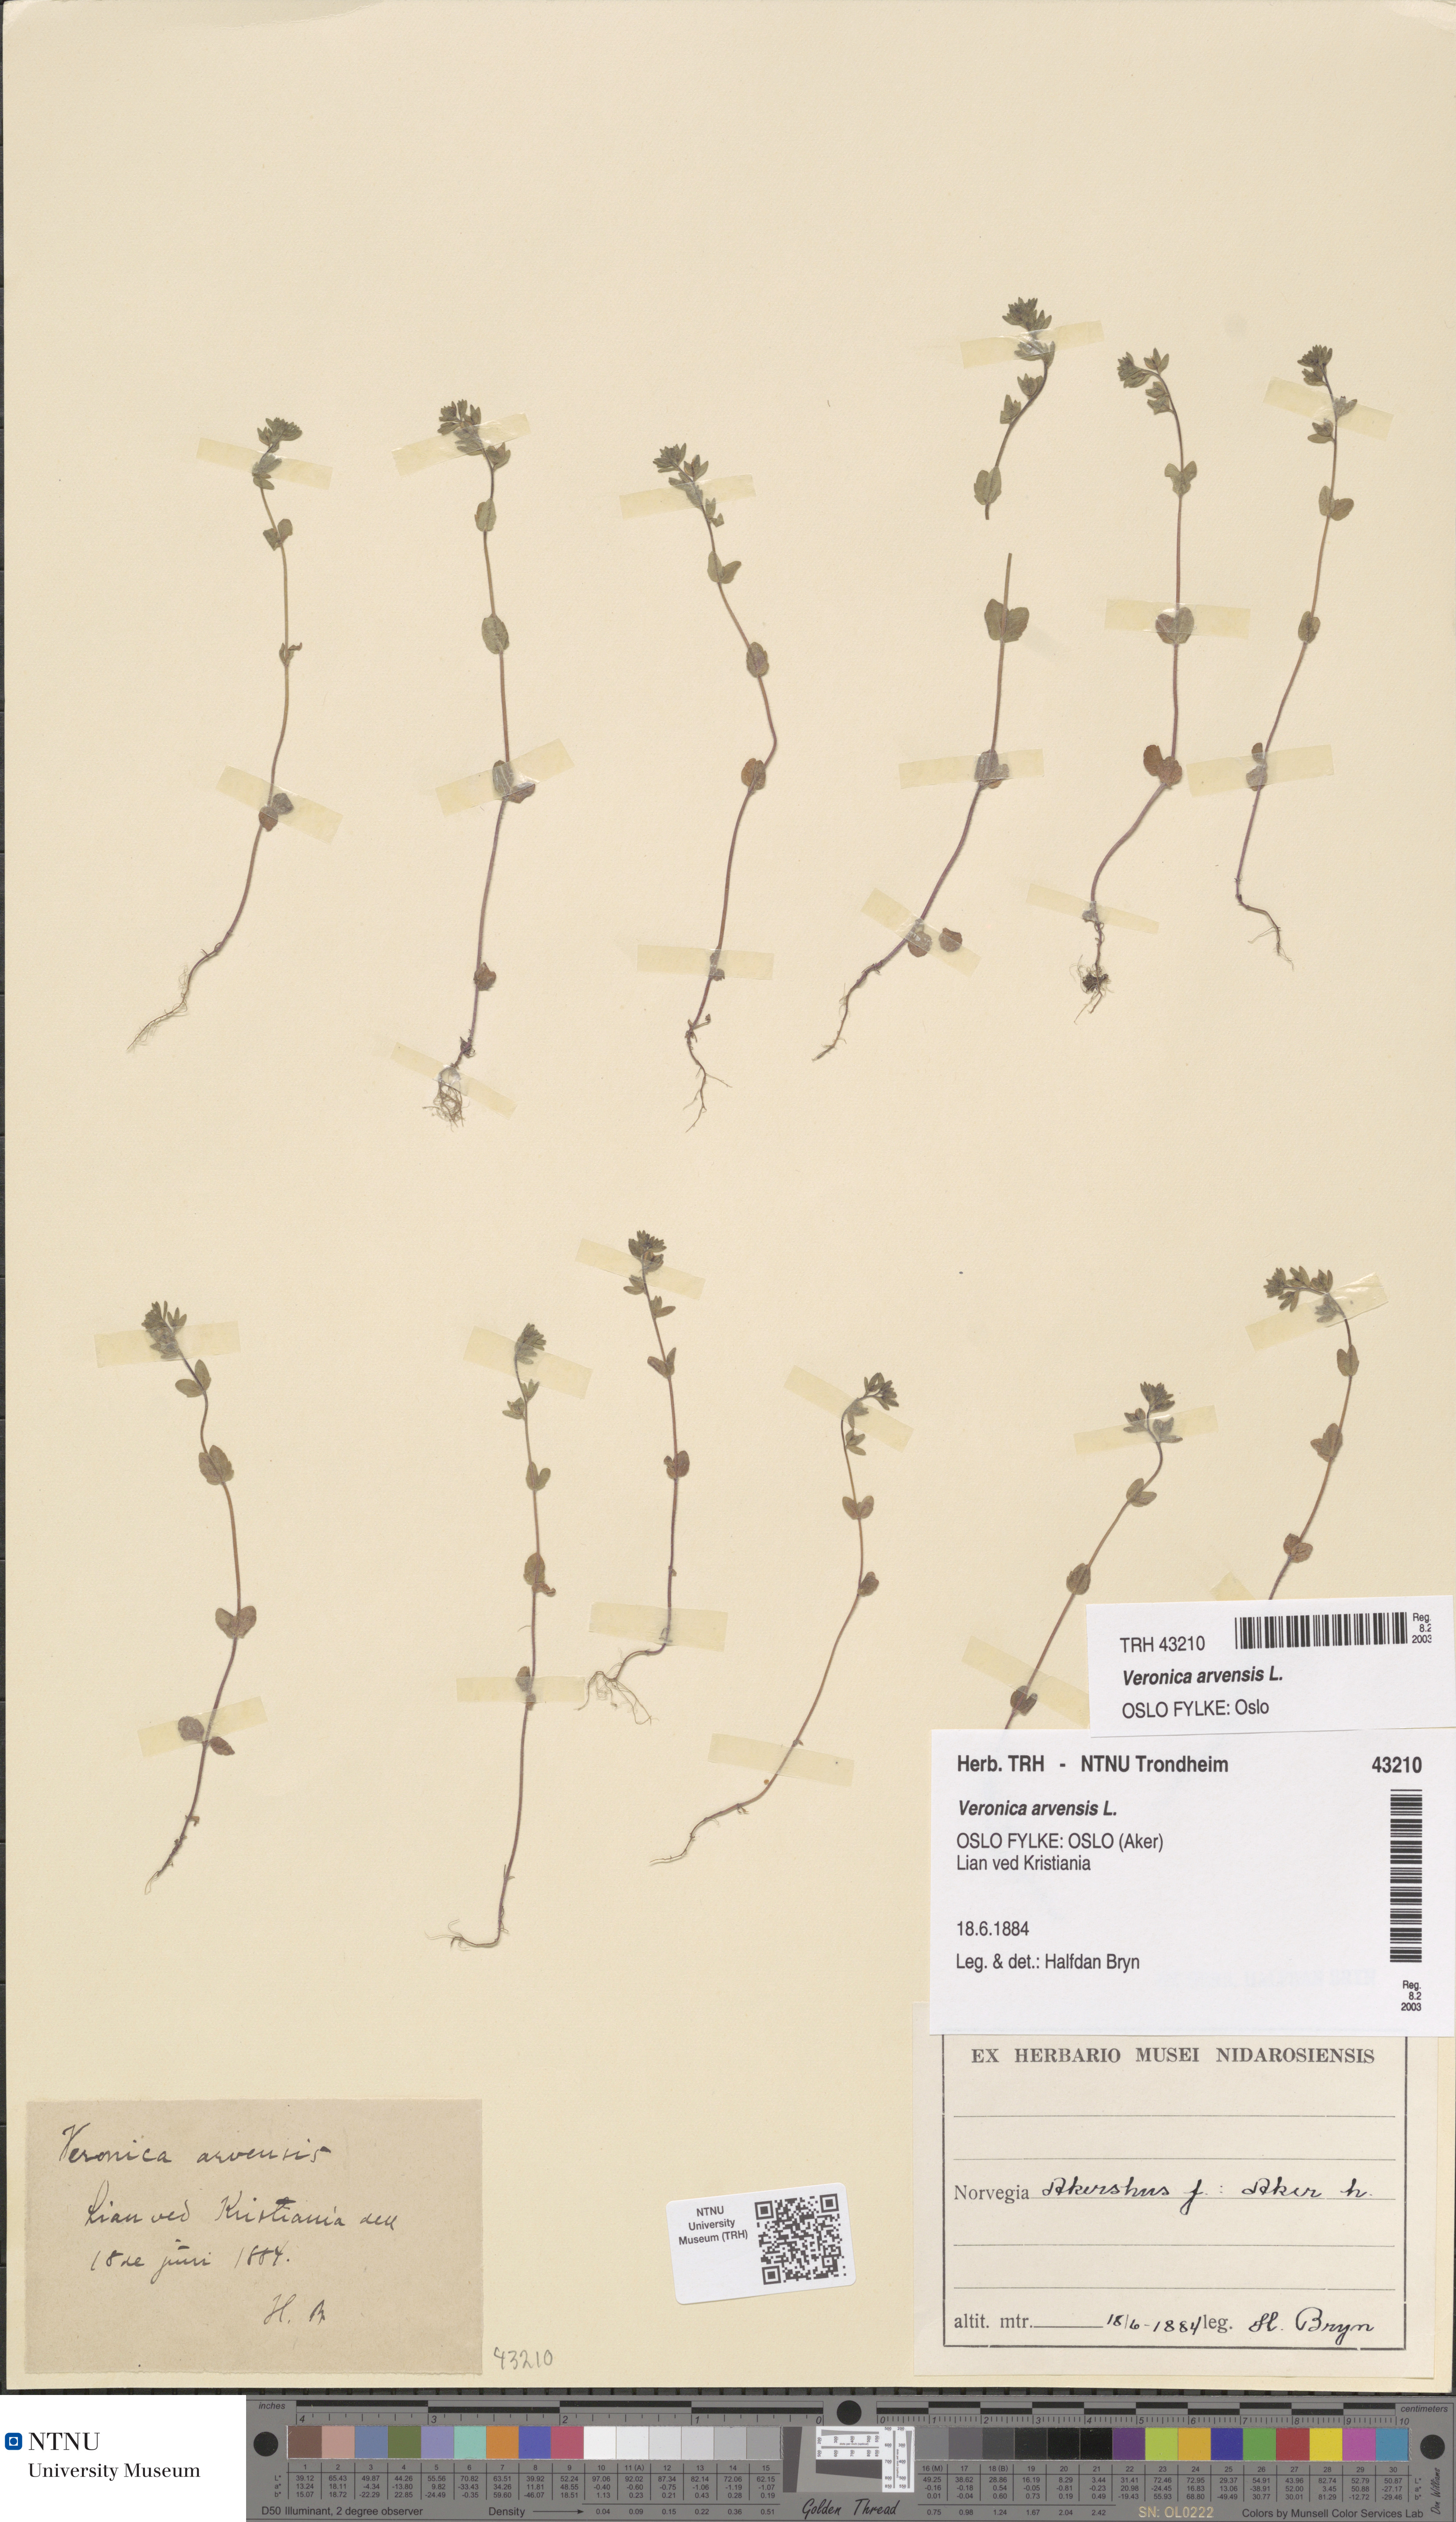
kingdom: Plantae
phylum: Tracheophyta
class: Magnoliopsida
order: Lamiales
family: Plantaginaceae
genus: Veronica
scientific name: Veronica arvensis
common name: Corn speedwell
